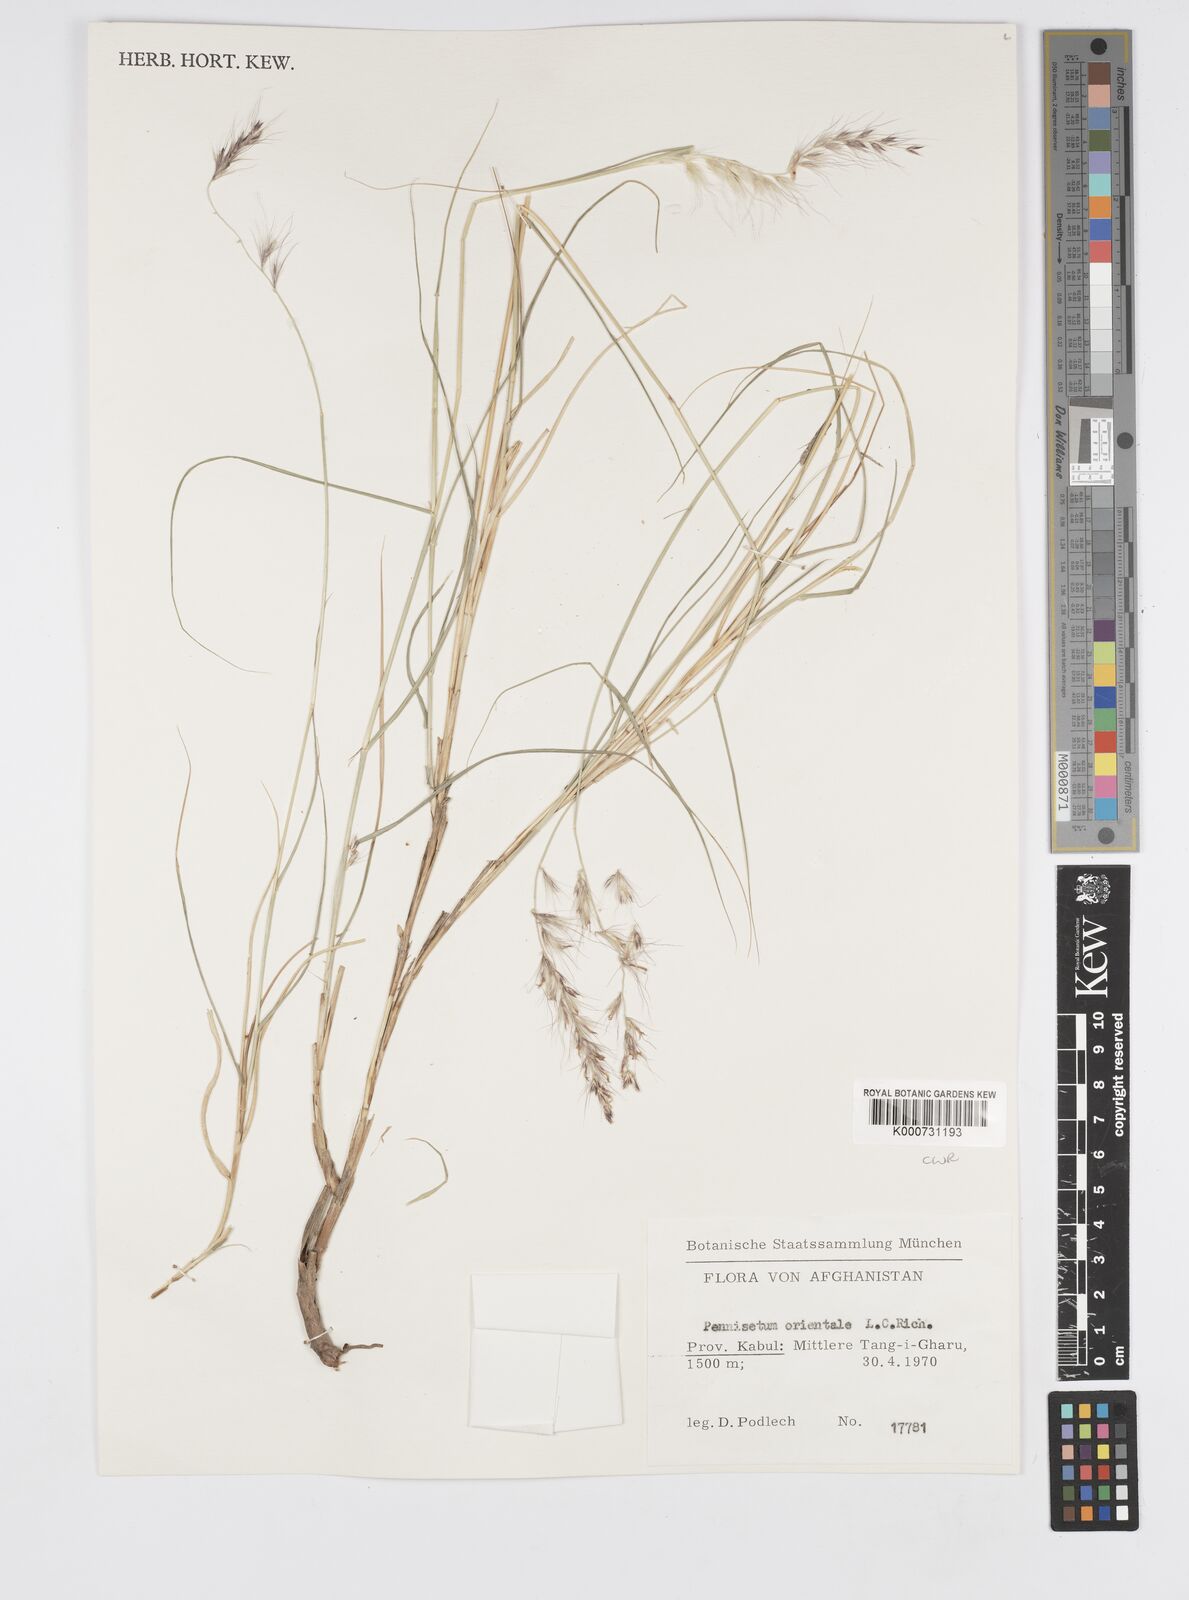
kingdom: Plantae
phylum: Tracheophyta
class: Liliopsida
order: Poales
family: Poaceae
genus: Cenchrus
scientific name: Cenchrus orientalis
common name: Oriental fountain grass
